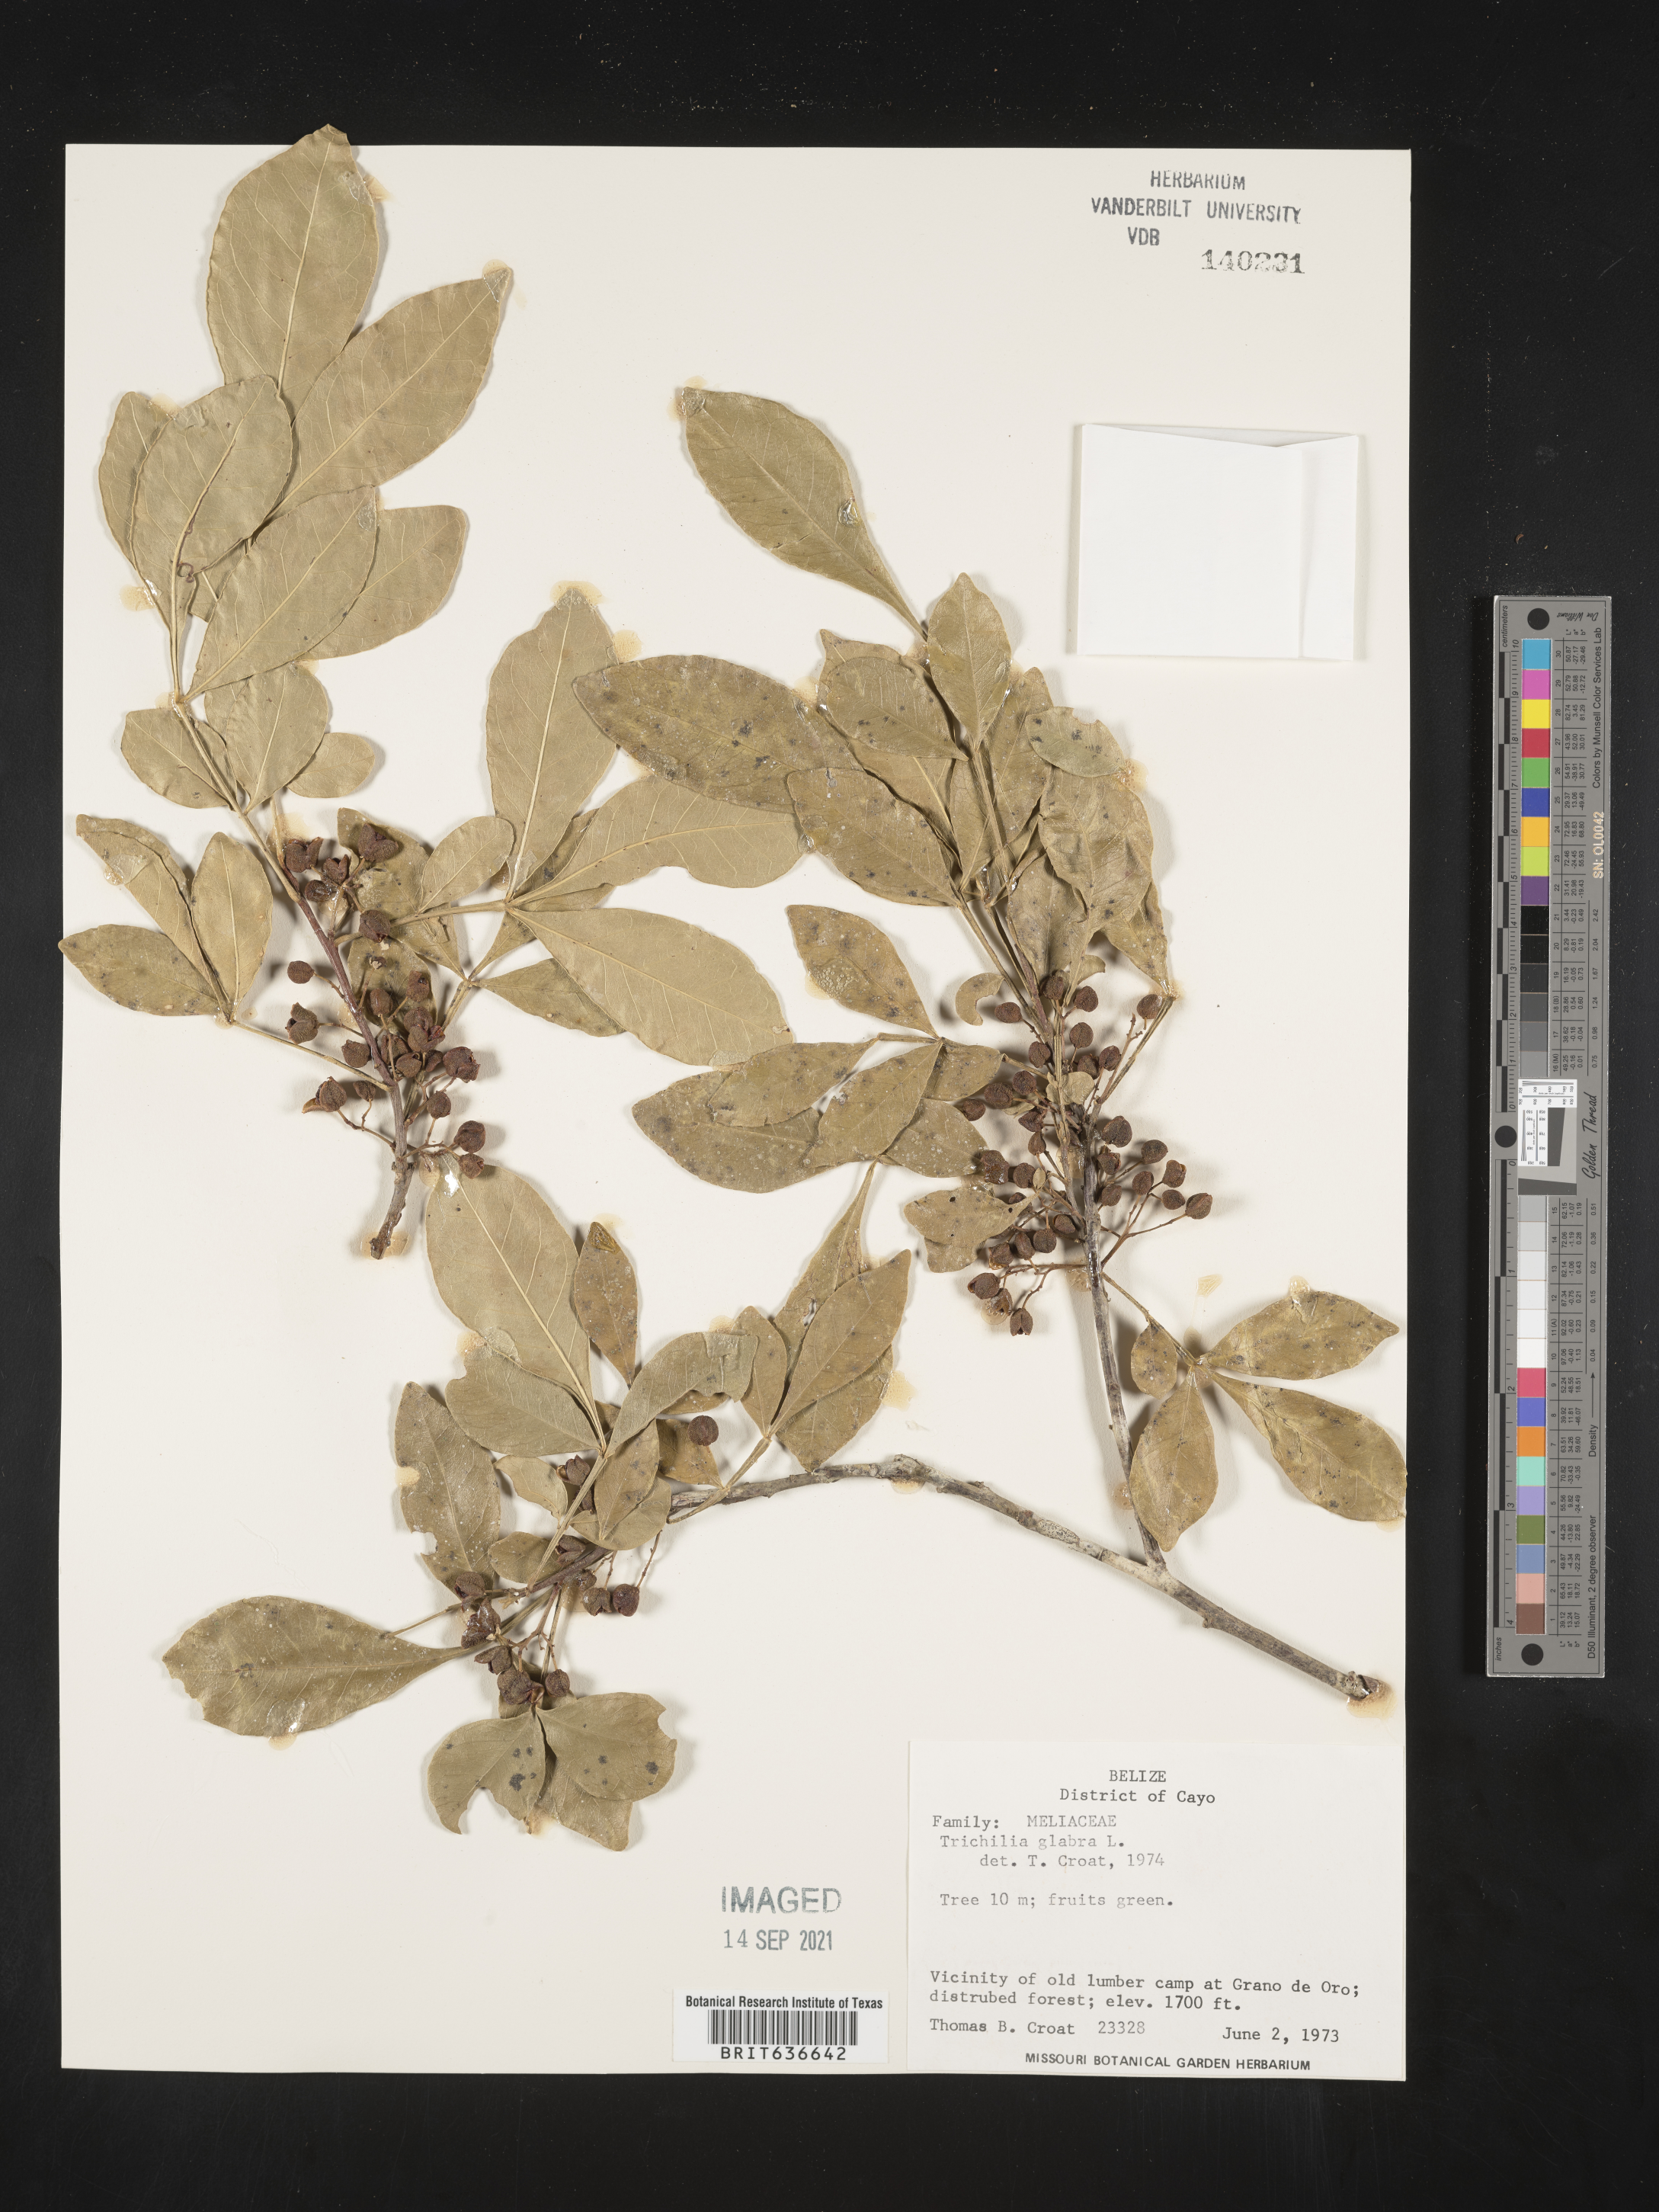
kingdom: Plantae
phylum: Tracheophyta
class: Magnoliopsida
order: Sapindales
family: Meliaceae
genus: Trichilia
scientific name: Trichilia
